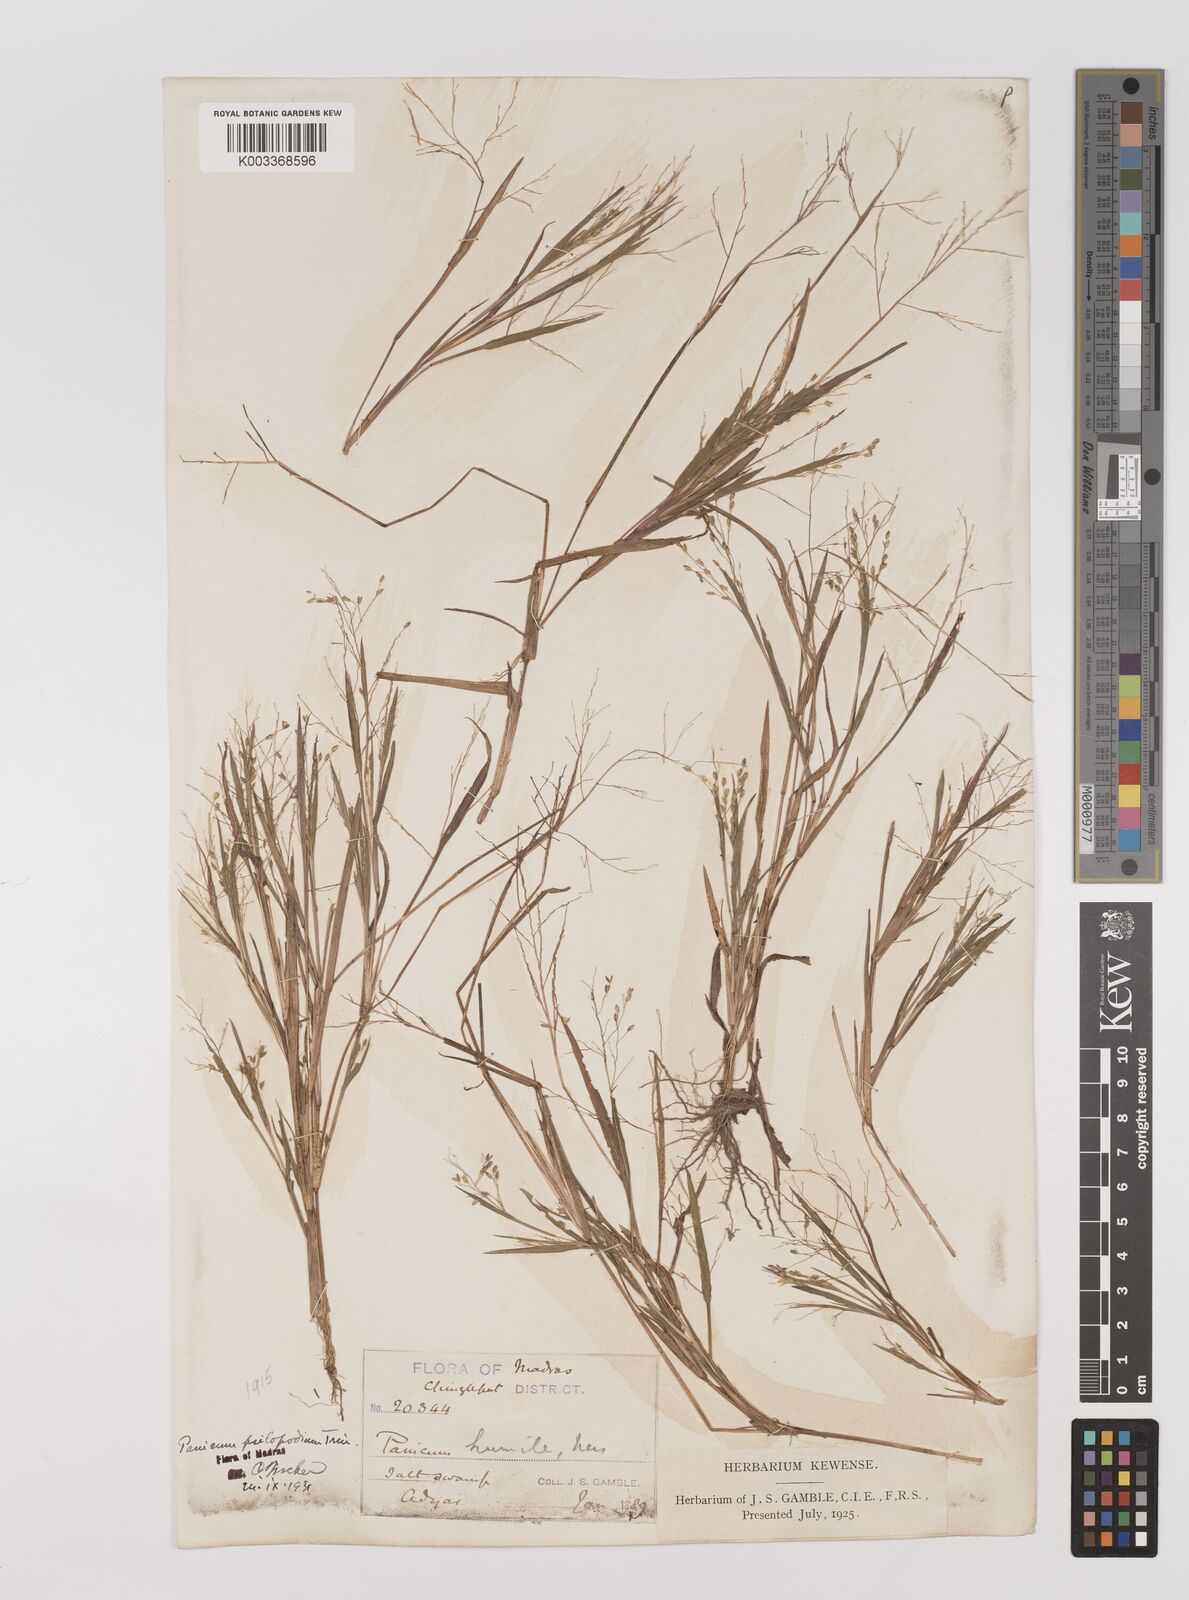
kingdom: Plantae
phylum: Tracheophyta
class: Liliopsida
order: Poales
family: Poaceae
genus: Panicum
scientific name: Panicum sumatrense
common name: Little millet
